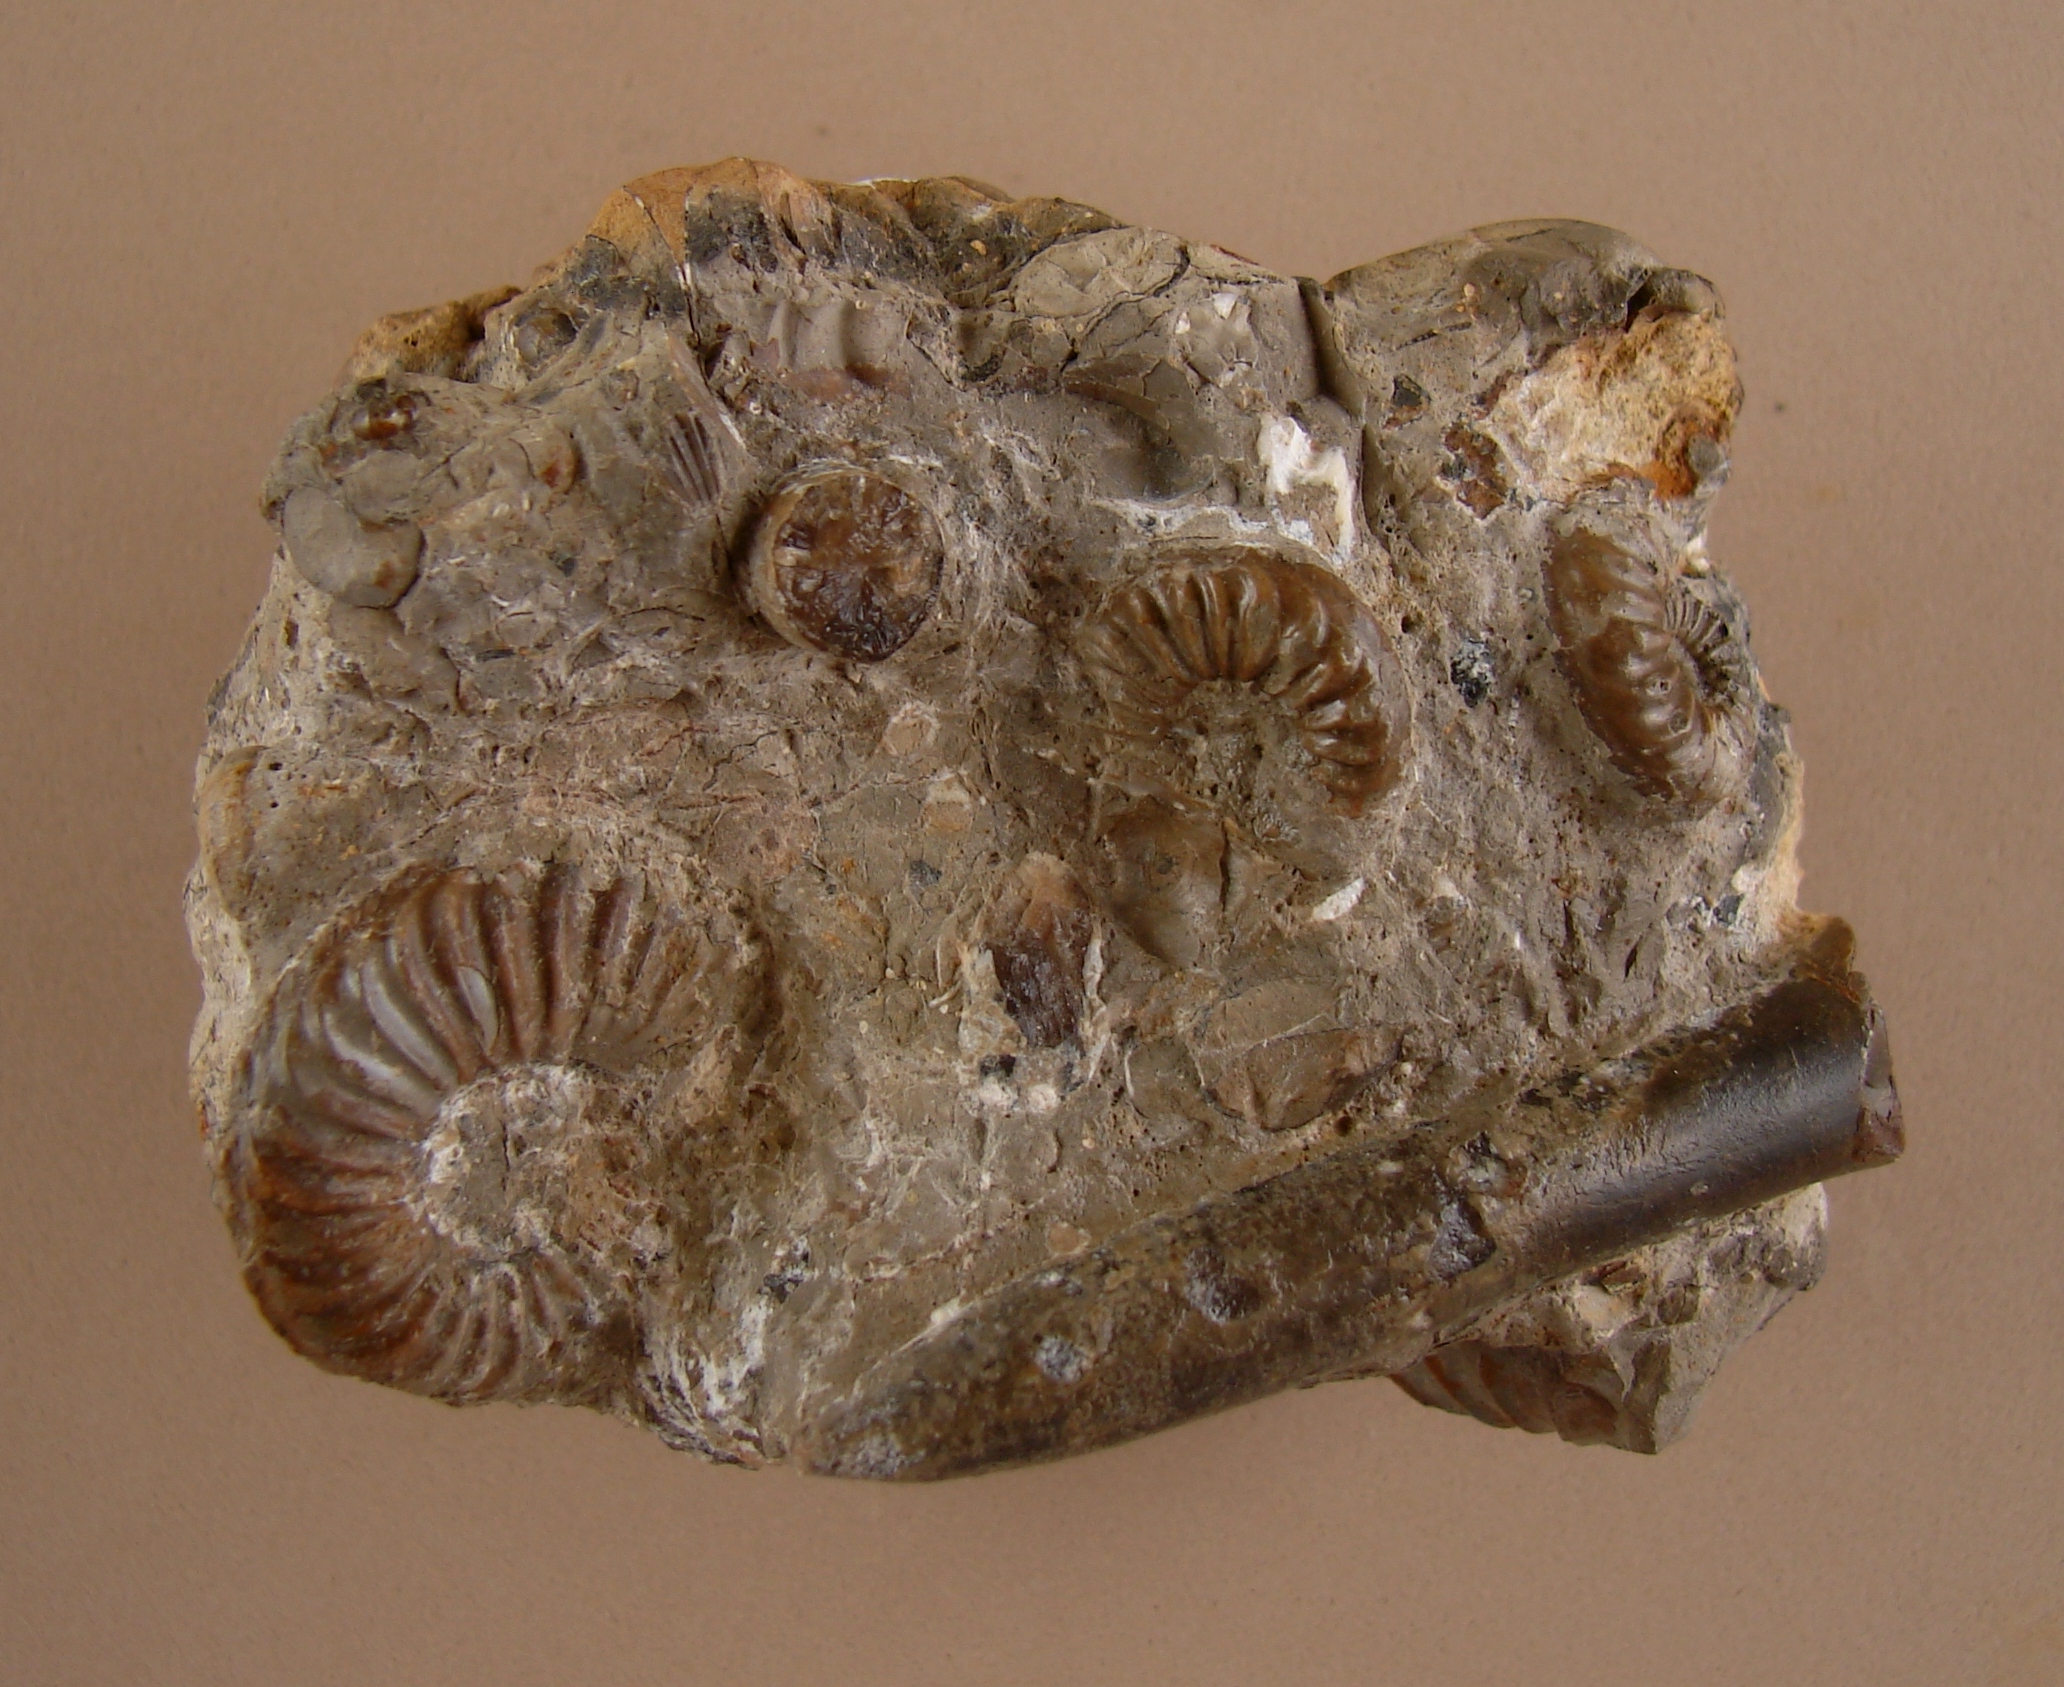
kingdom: Animalia
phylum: Mollusca
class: Cephalopoda
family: Amaltheidae
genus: Pleuroceras
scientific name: Pleuroceras solare
